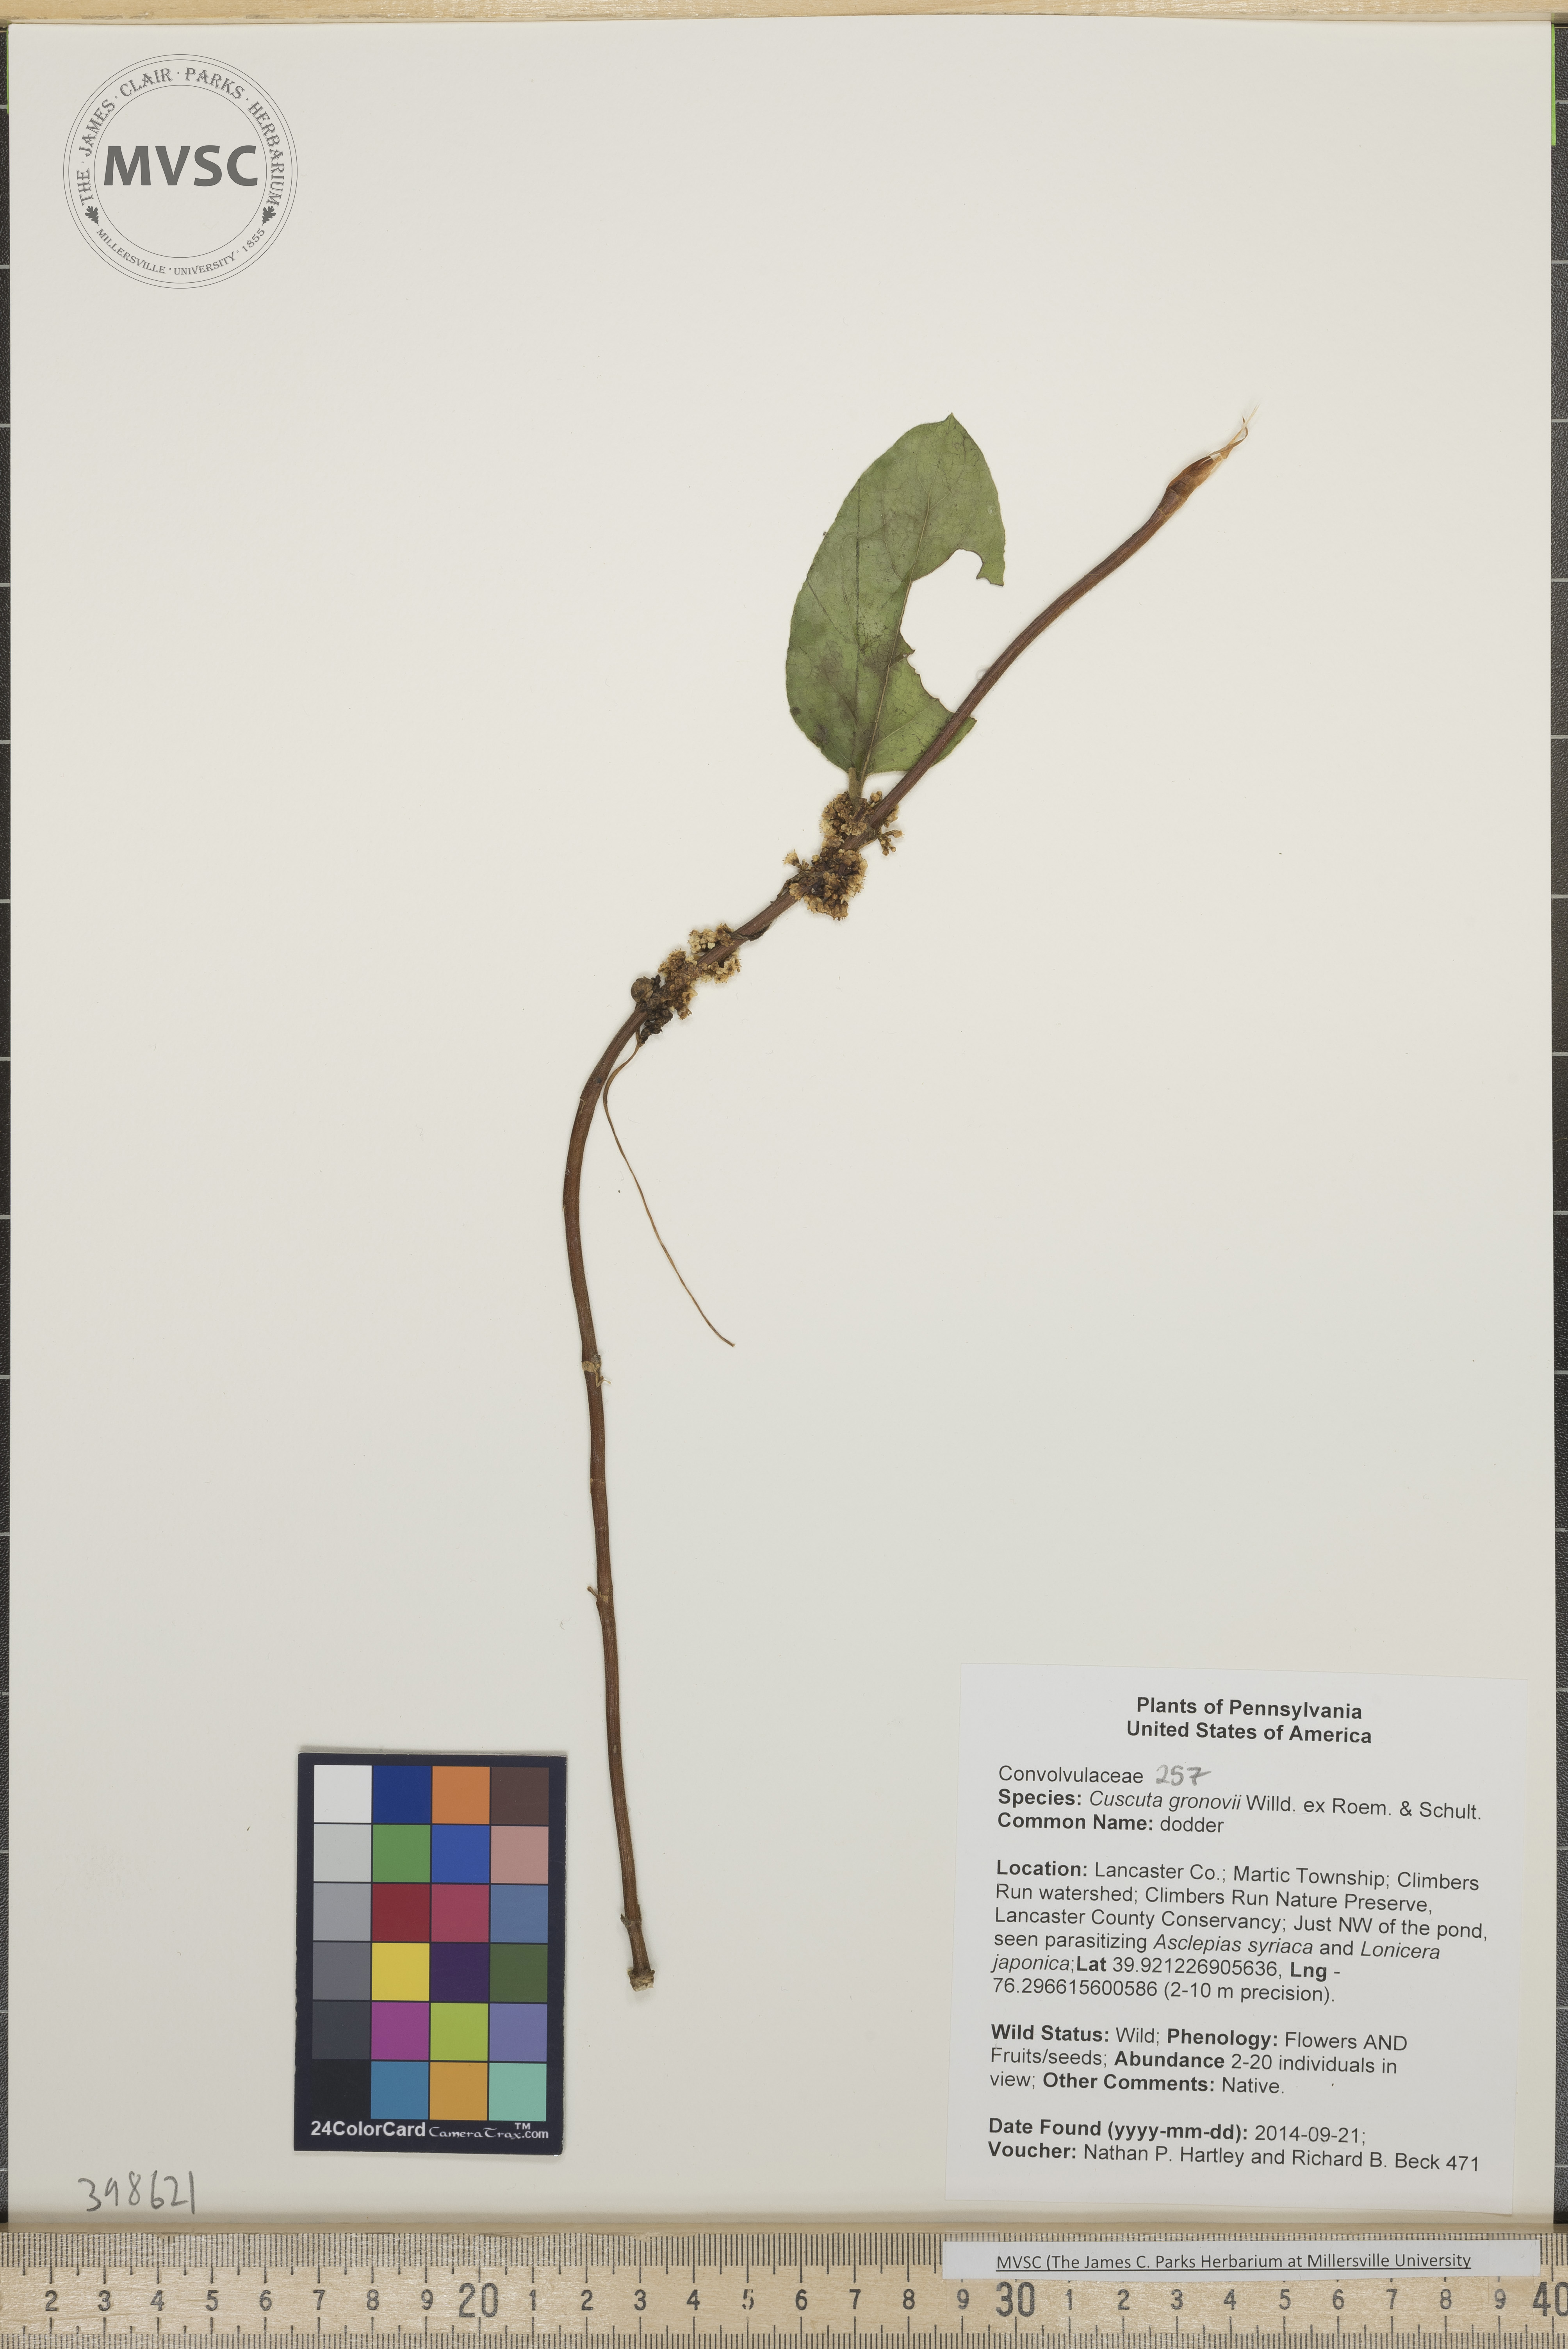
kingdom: Plantae
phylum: Tracheophyta
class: Magnoliopsida
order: Solanales
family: Convolvulaceae
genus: Cuscuta
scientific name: Cuscuta gronovii
